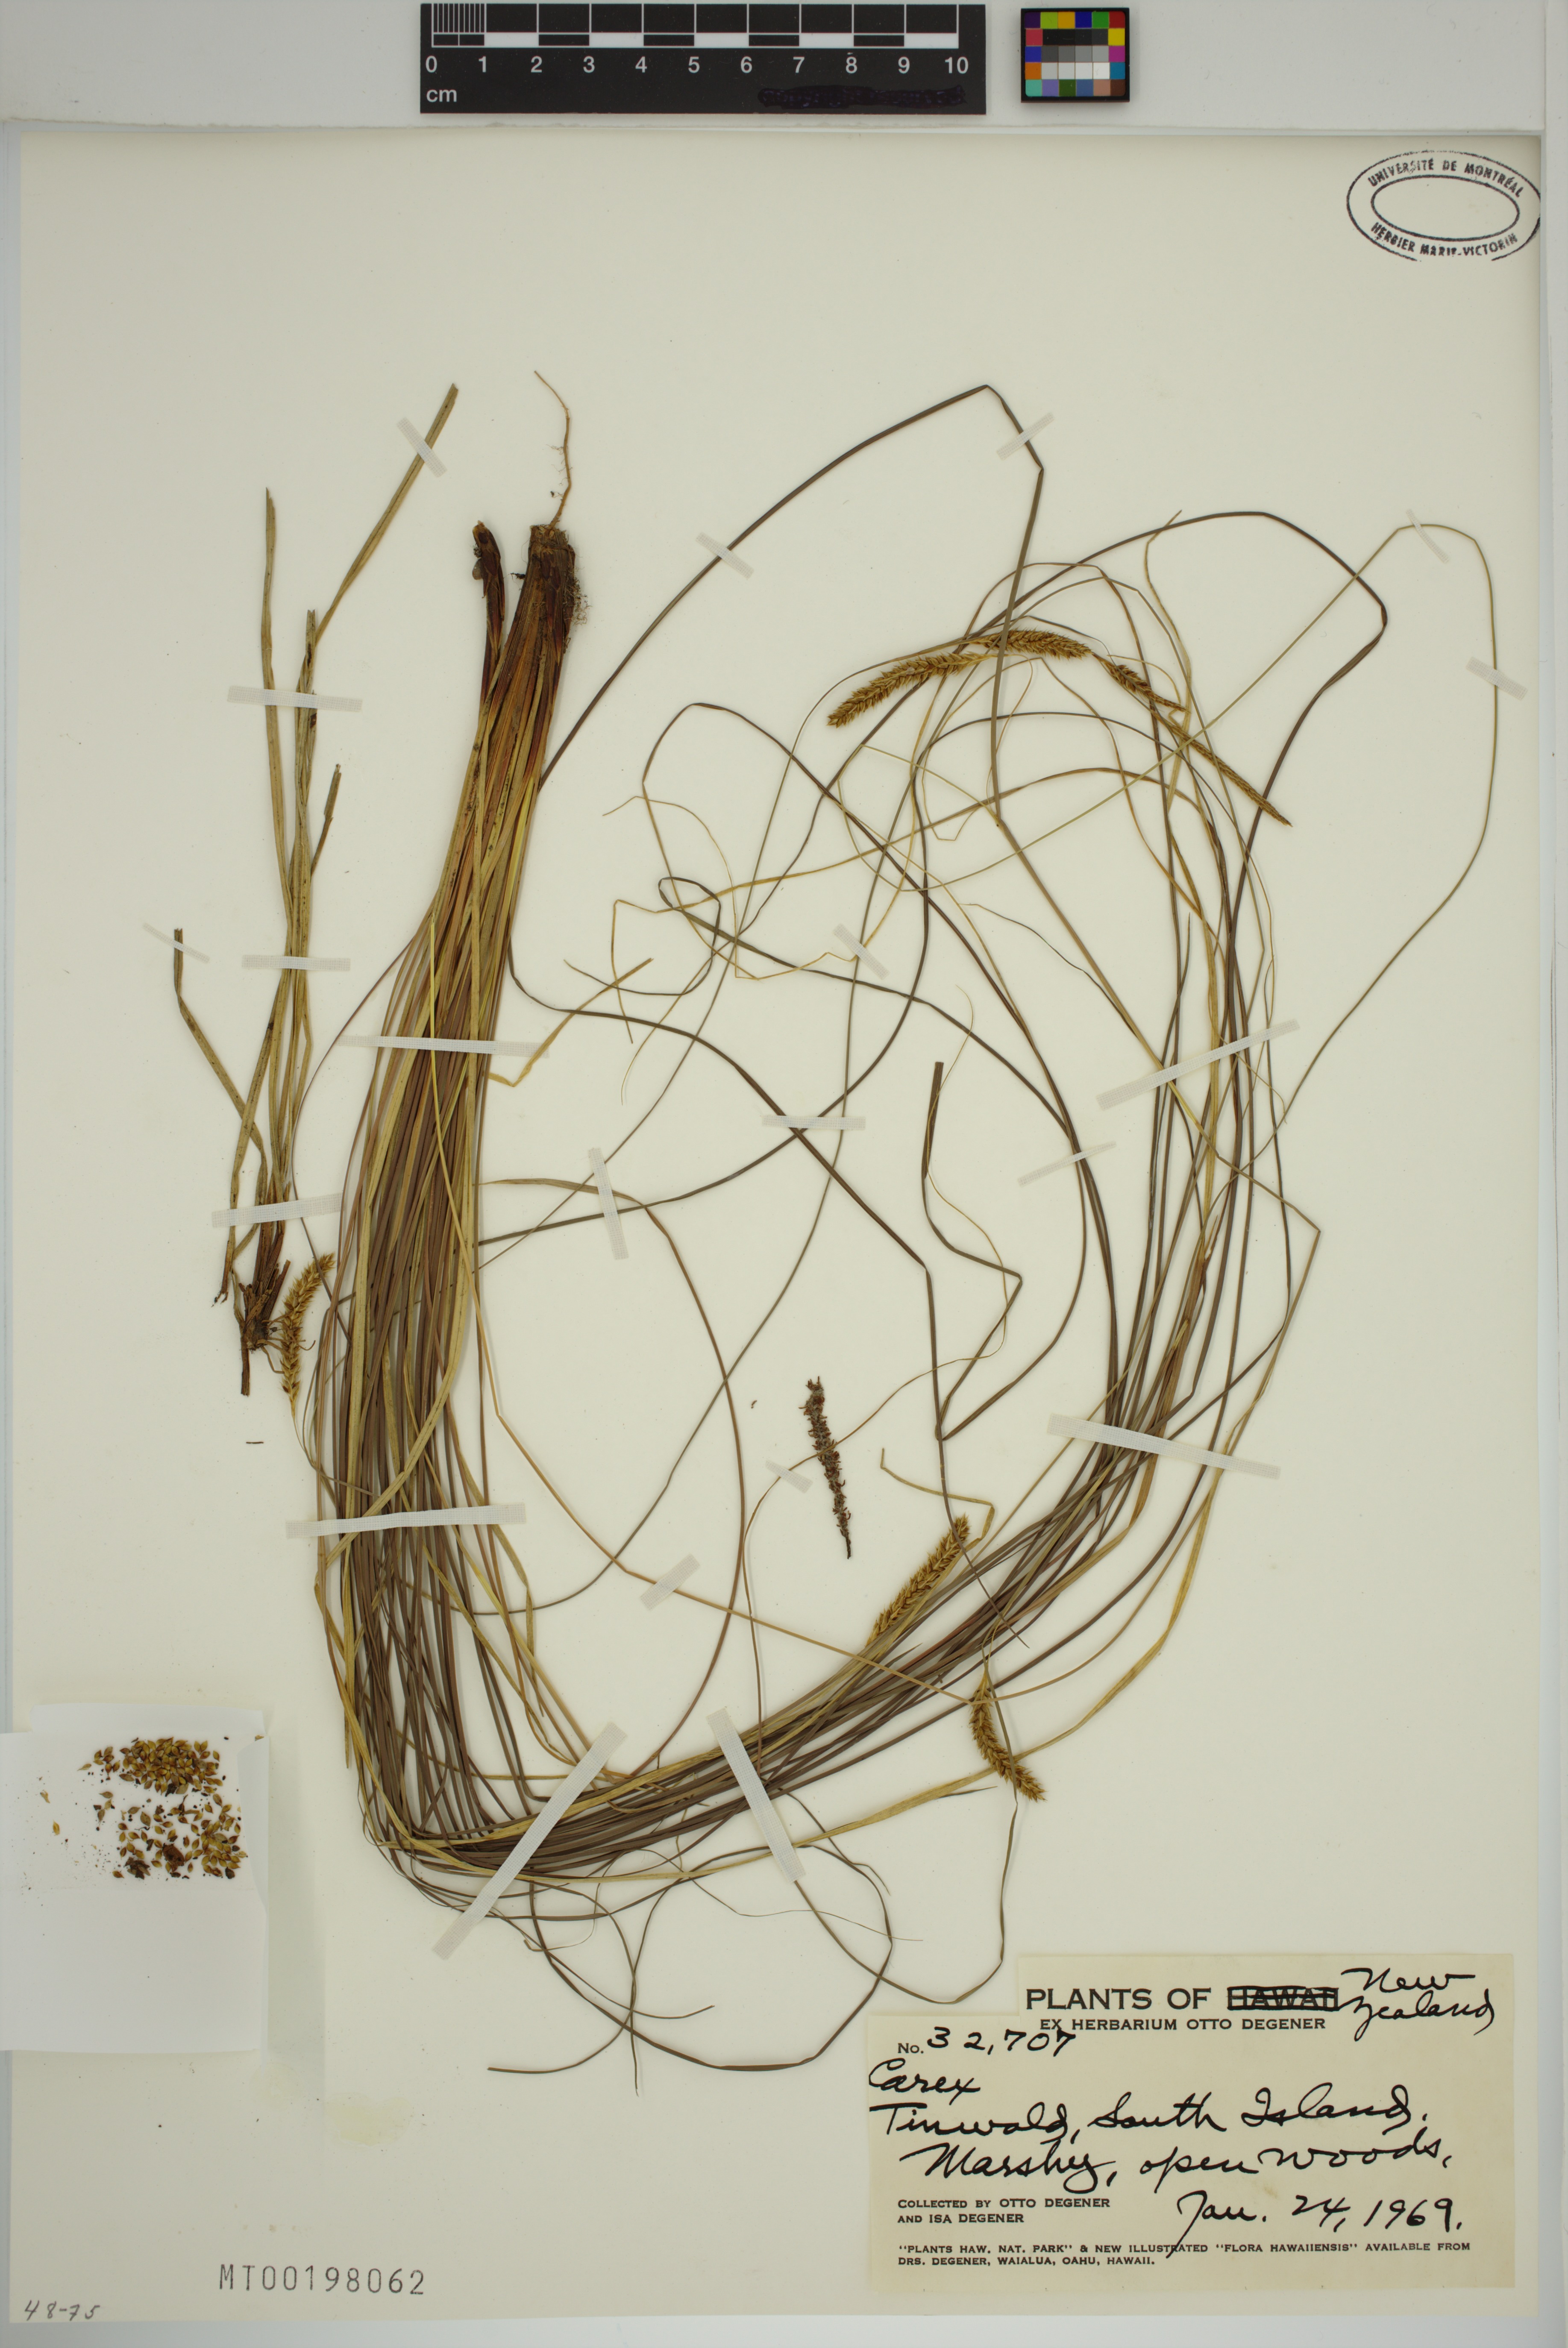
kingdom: Plantae
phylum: Tracheophyta
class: Liliopsida
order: Poales
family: Cyperaceae
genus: Carex
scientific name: Carex
